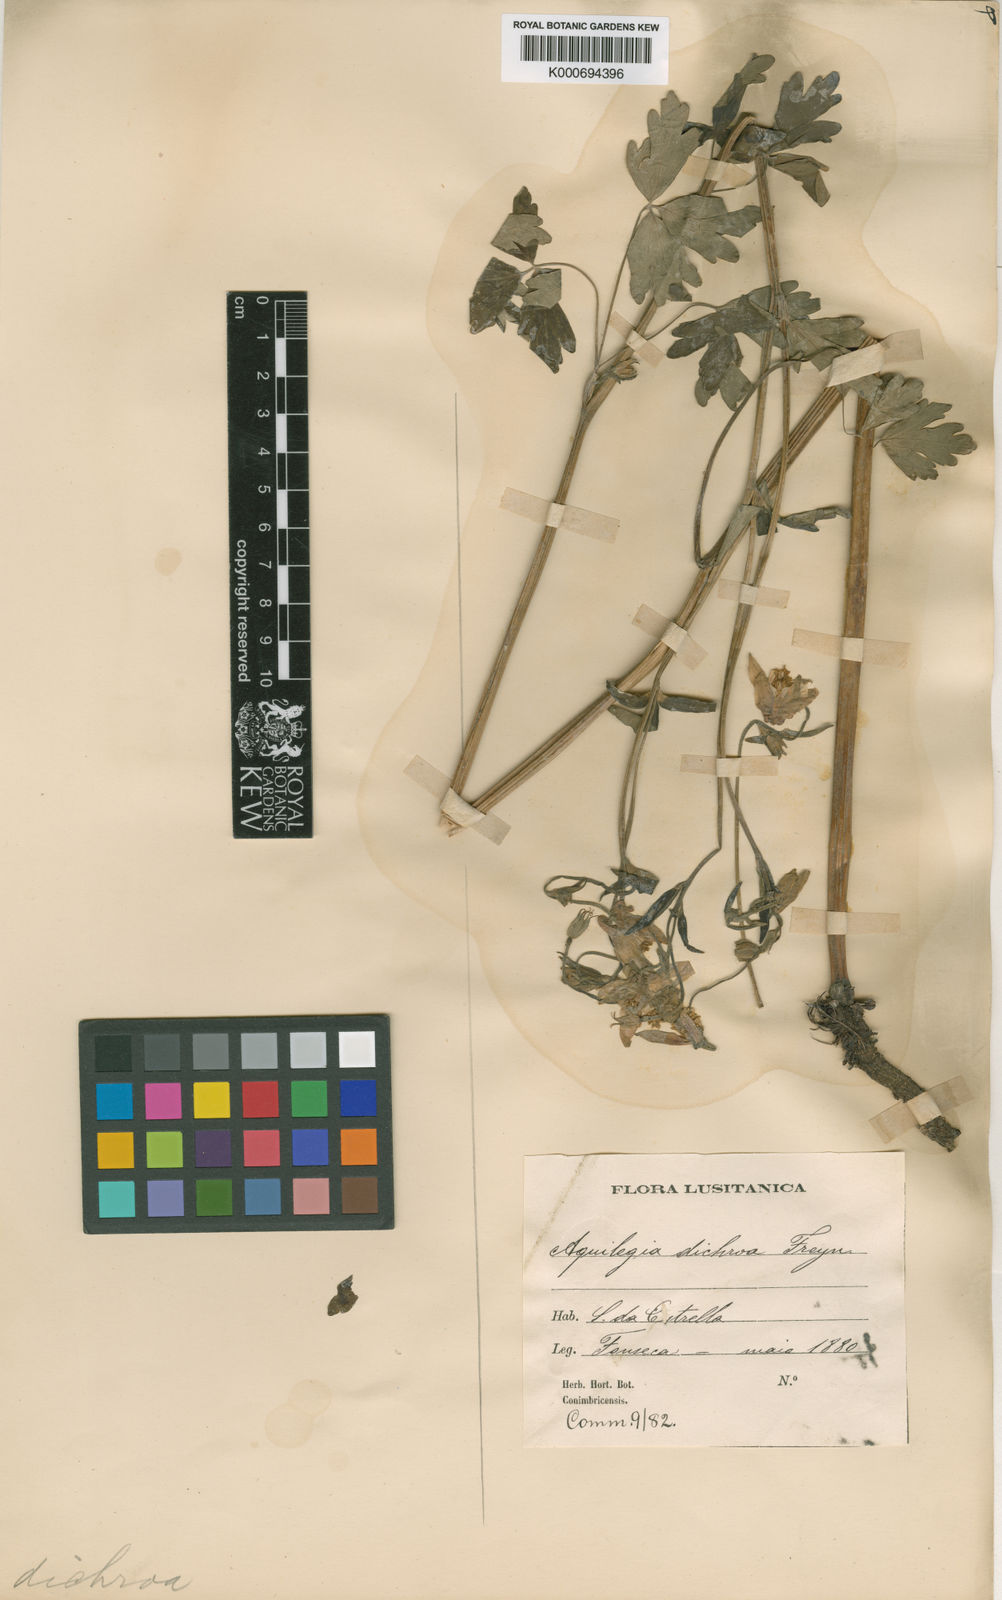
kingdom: Plantae
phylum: Tracheophyta
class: Magnoliopsida
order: Ranunculales
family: Ranunculaceae
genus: Aquilegia
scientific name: Aquilegia vulgaris
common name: Columbine
